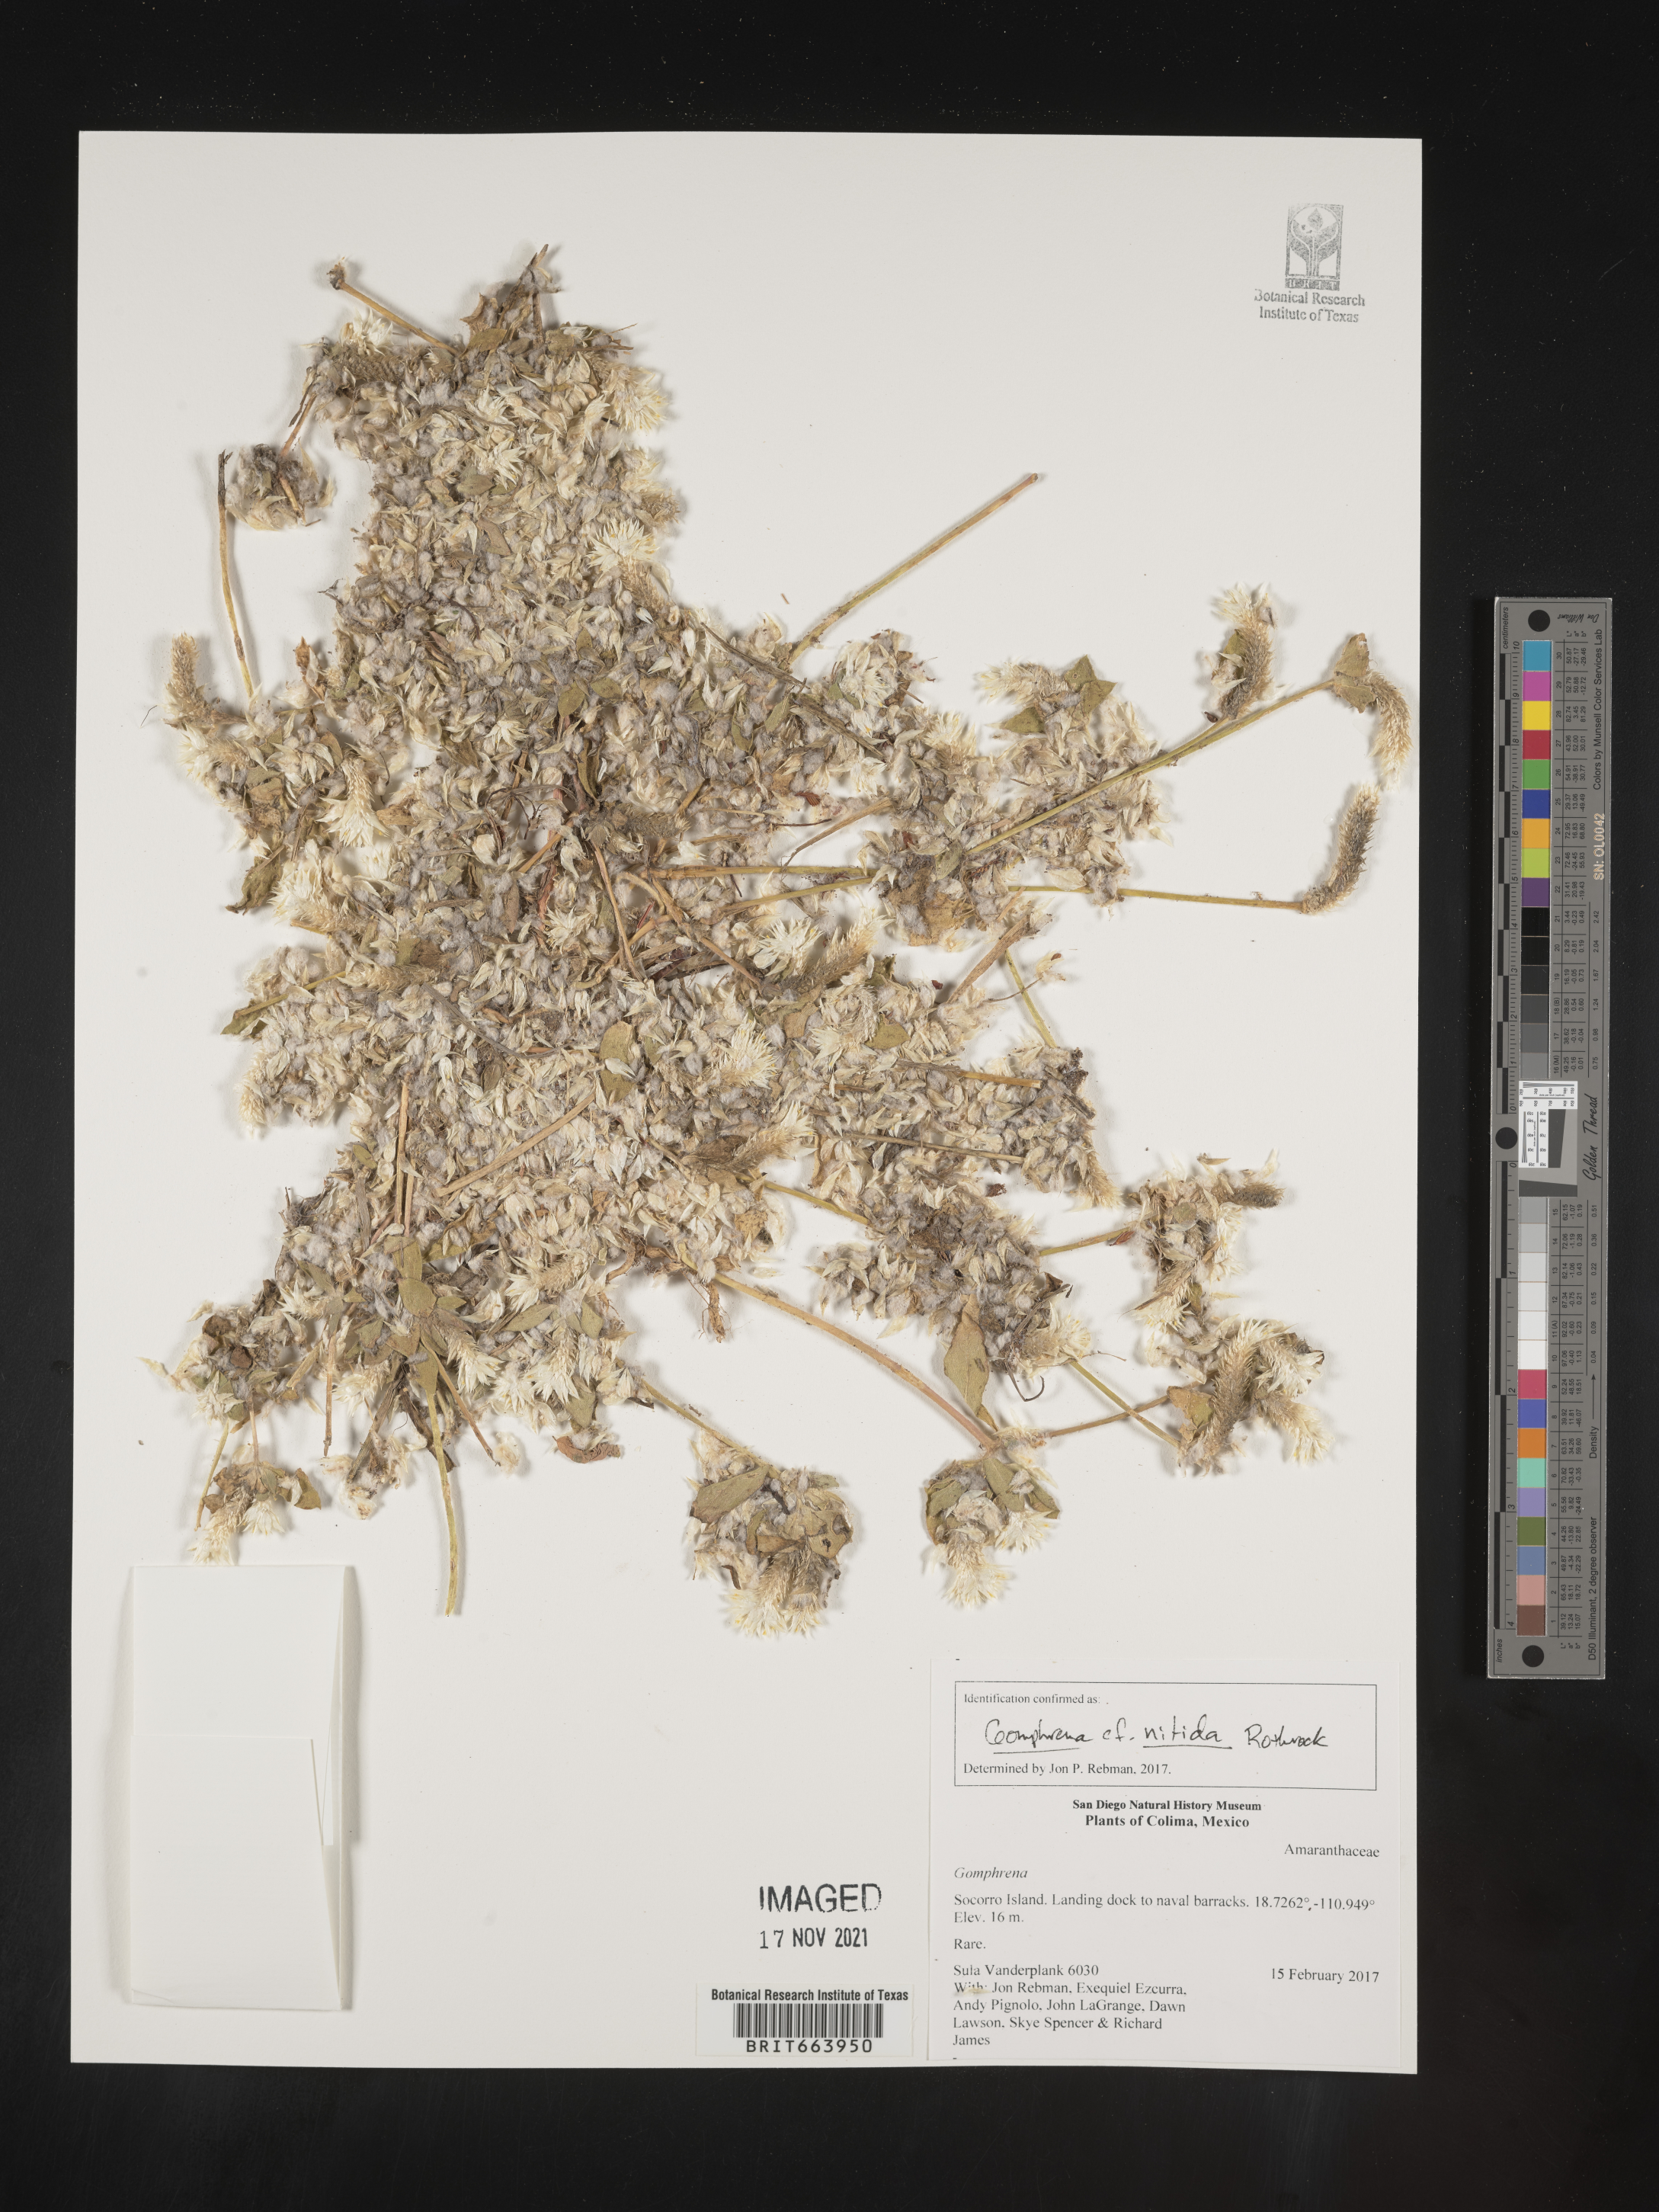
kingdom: Plantae
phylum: Tracheophyta
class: Magnoliopsida
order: Caryophyllales
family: Amaranthaceae
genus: Gomphrena
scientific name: Gomphrena
